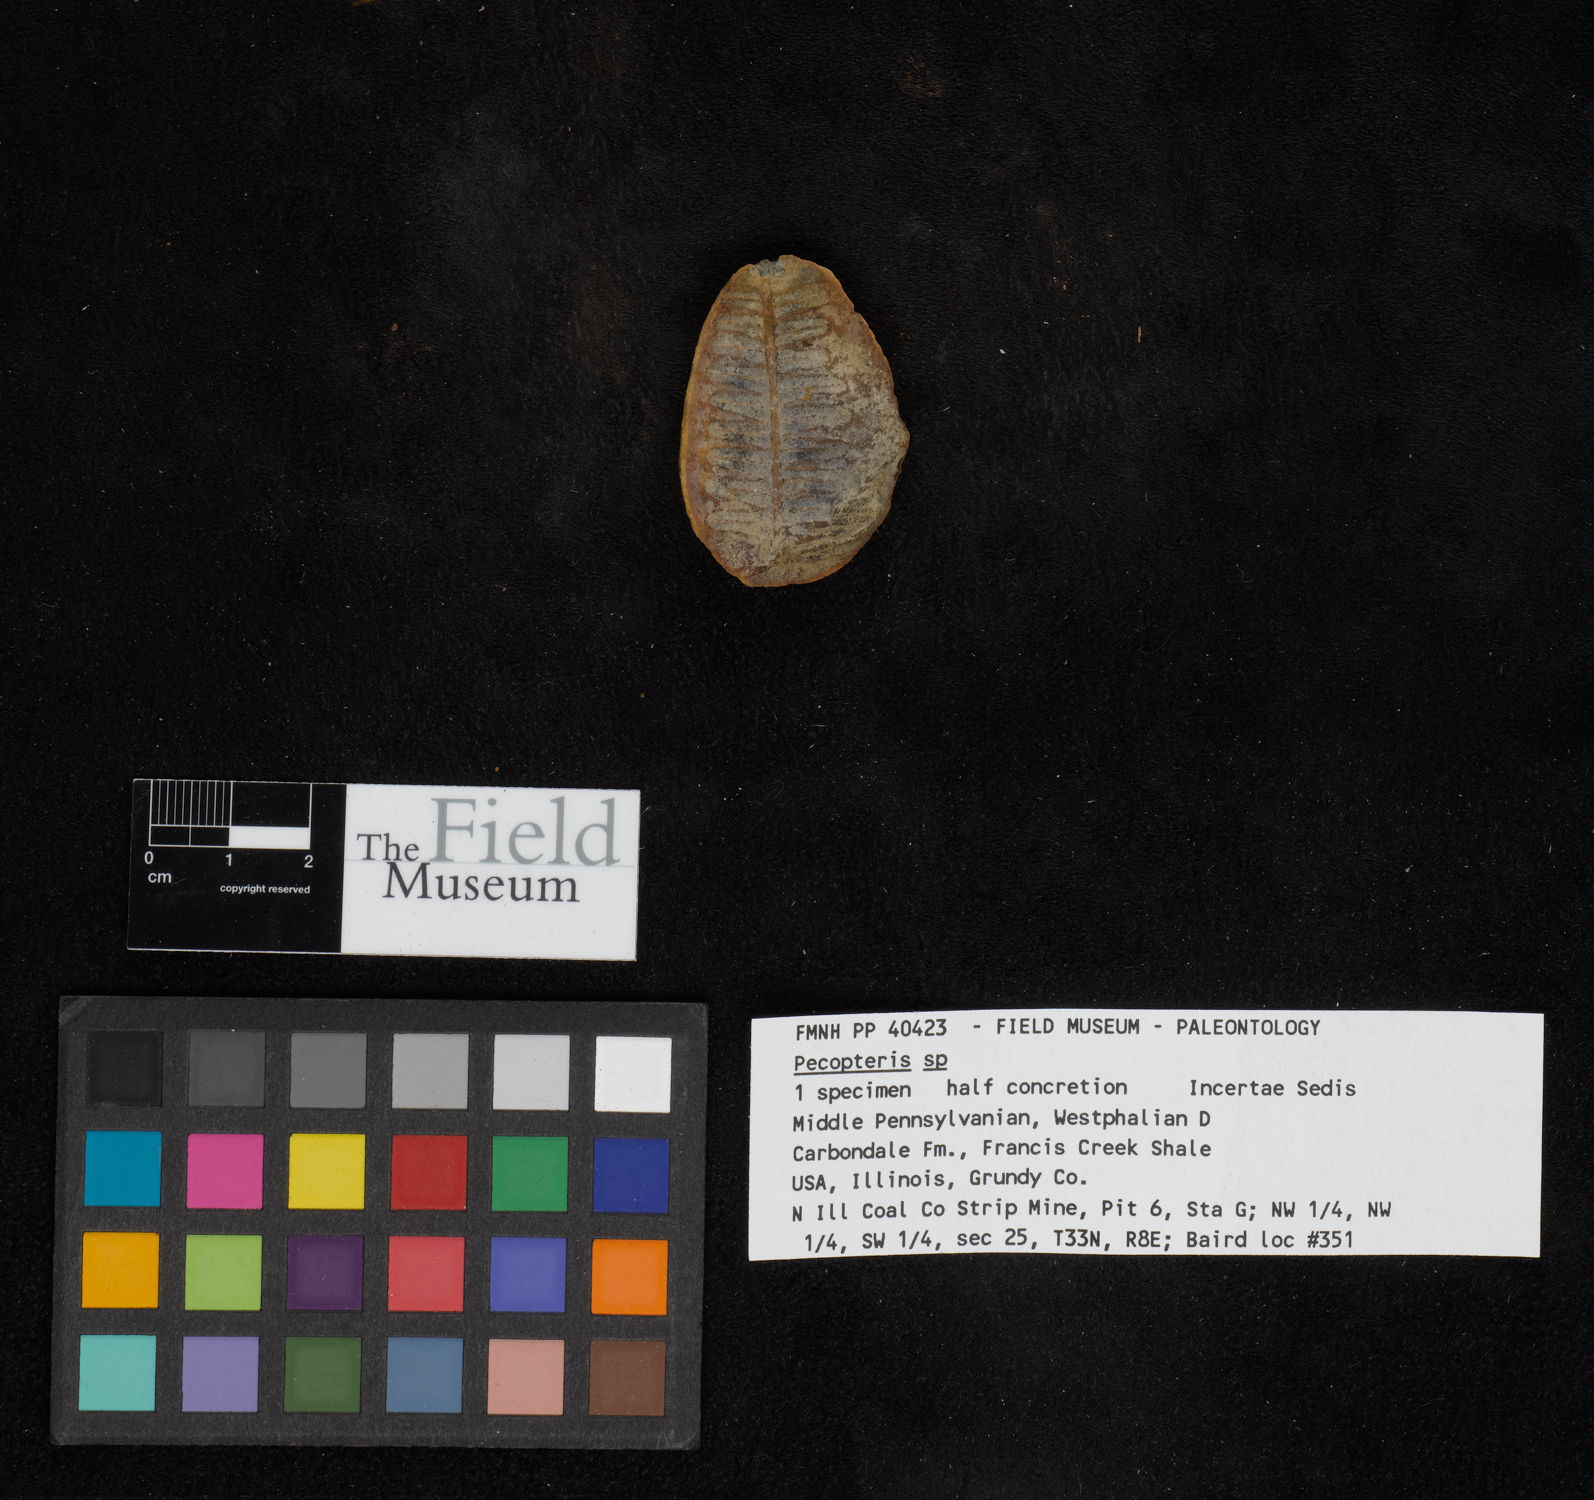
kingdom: Plantae
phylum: Tracheophyta
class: Polypodiopsida
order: Marattiales
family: Asterothecaceae
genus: Pecopteris
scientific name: Pecopteris
